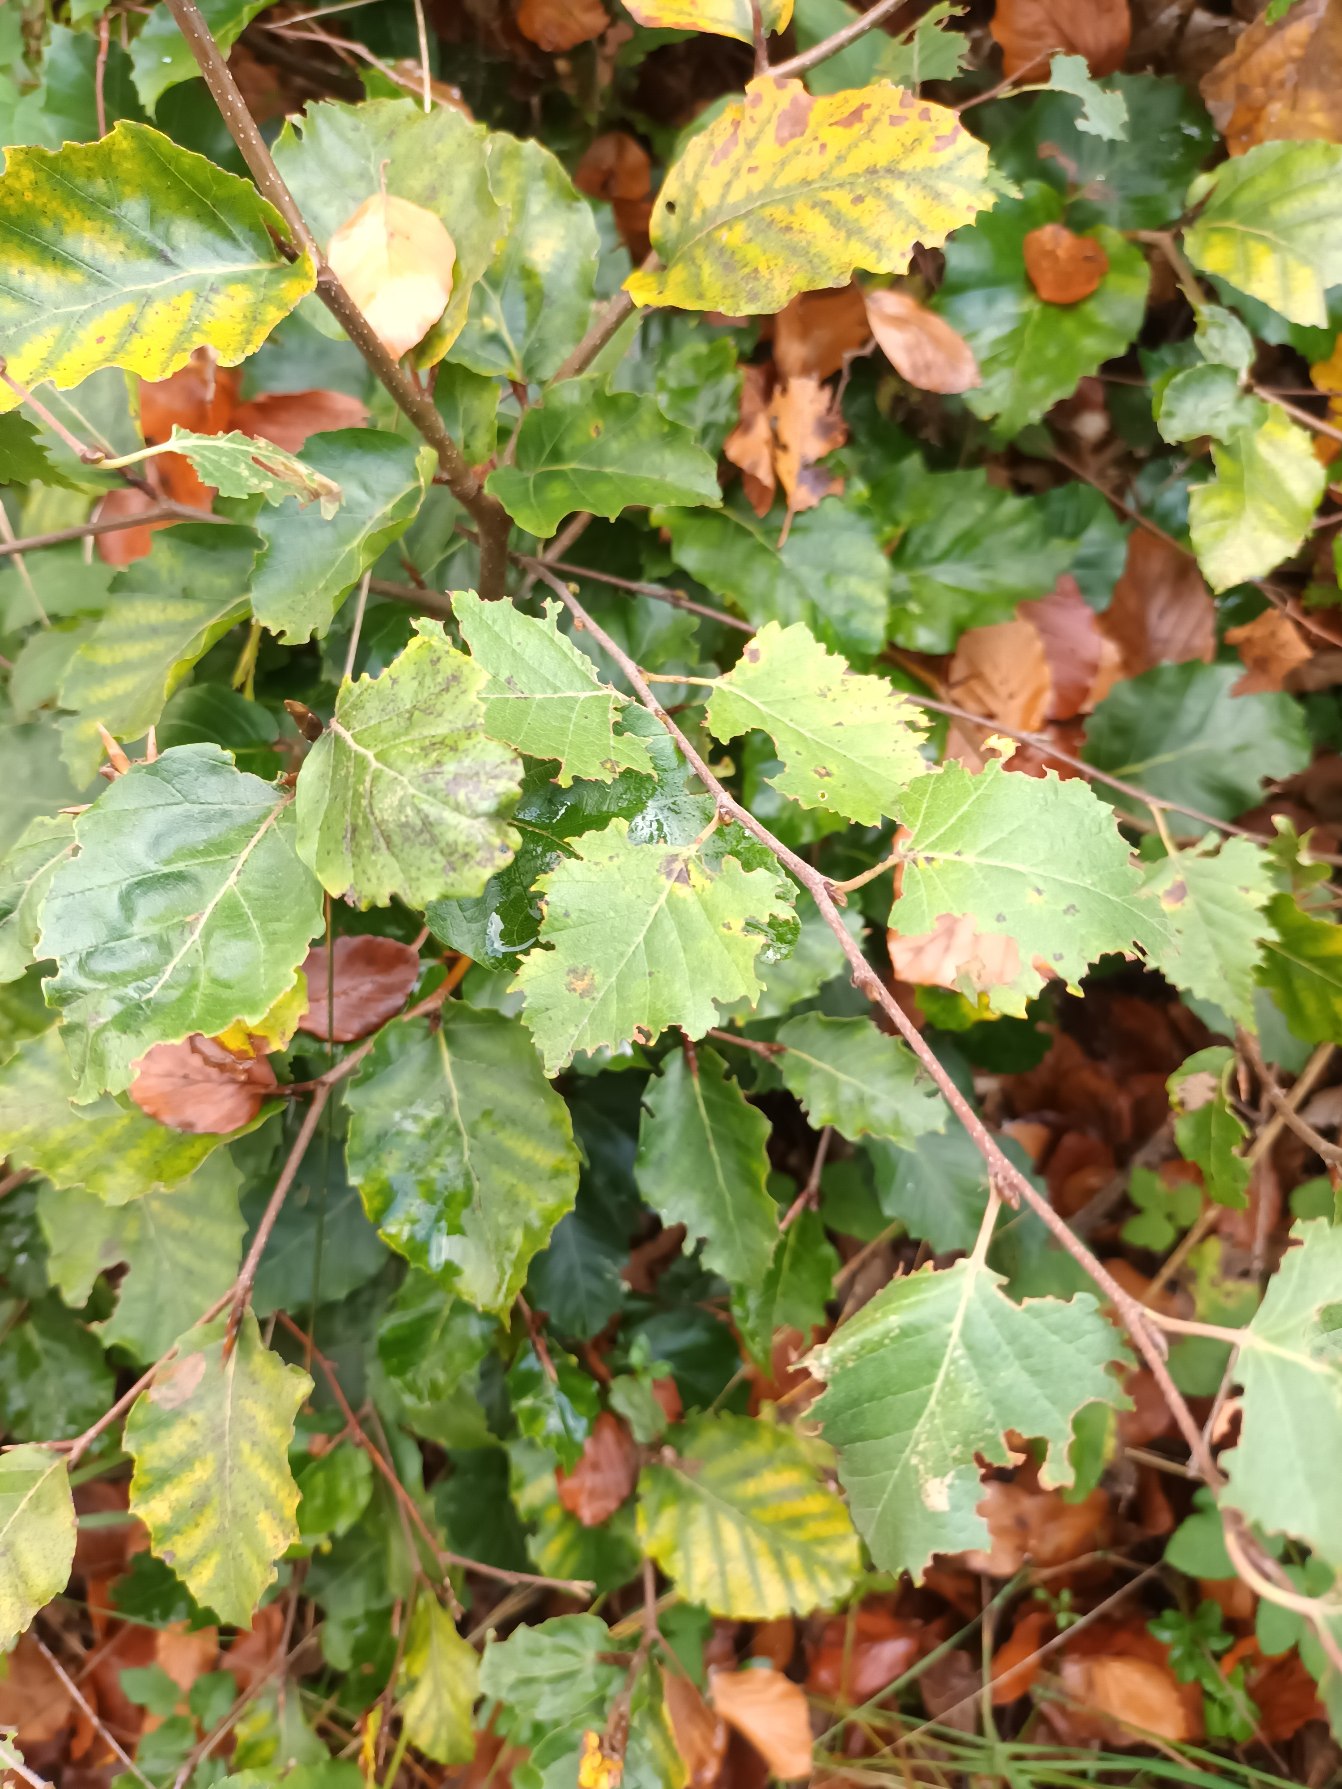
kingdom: Plantae
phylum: Tracheophyta
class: Magnoliopsida
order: Fagales
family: Betulaceae
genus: Betula
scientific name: Betula pendula
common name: Vorte-birk
